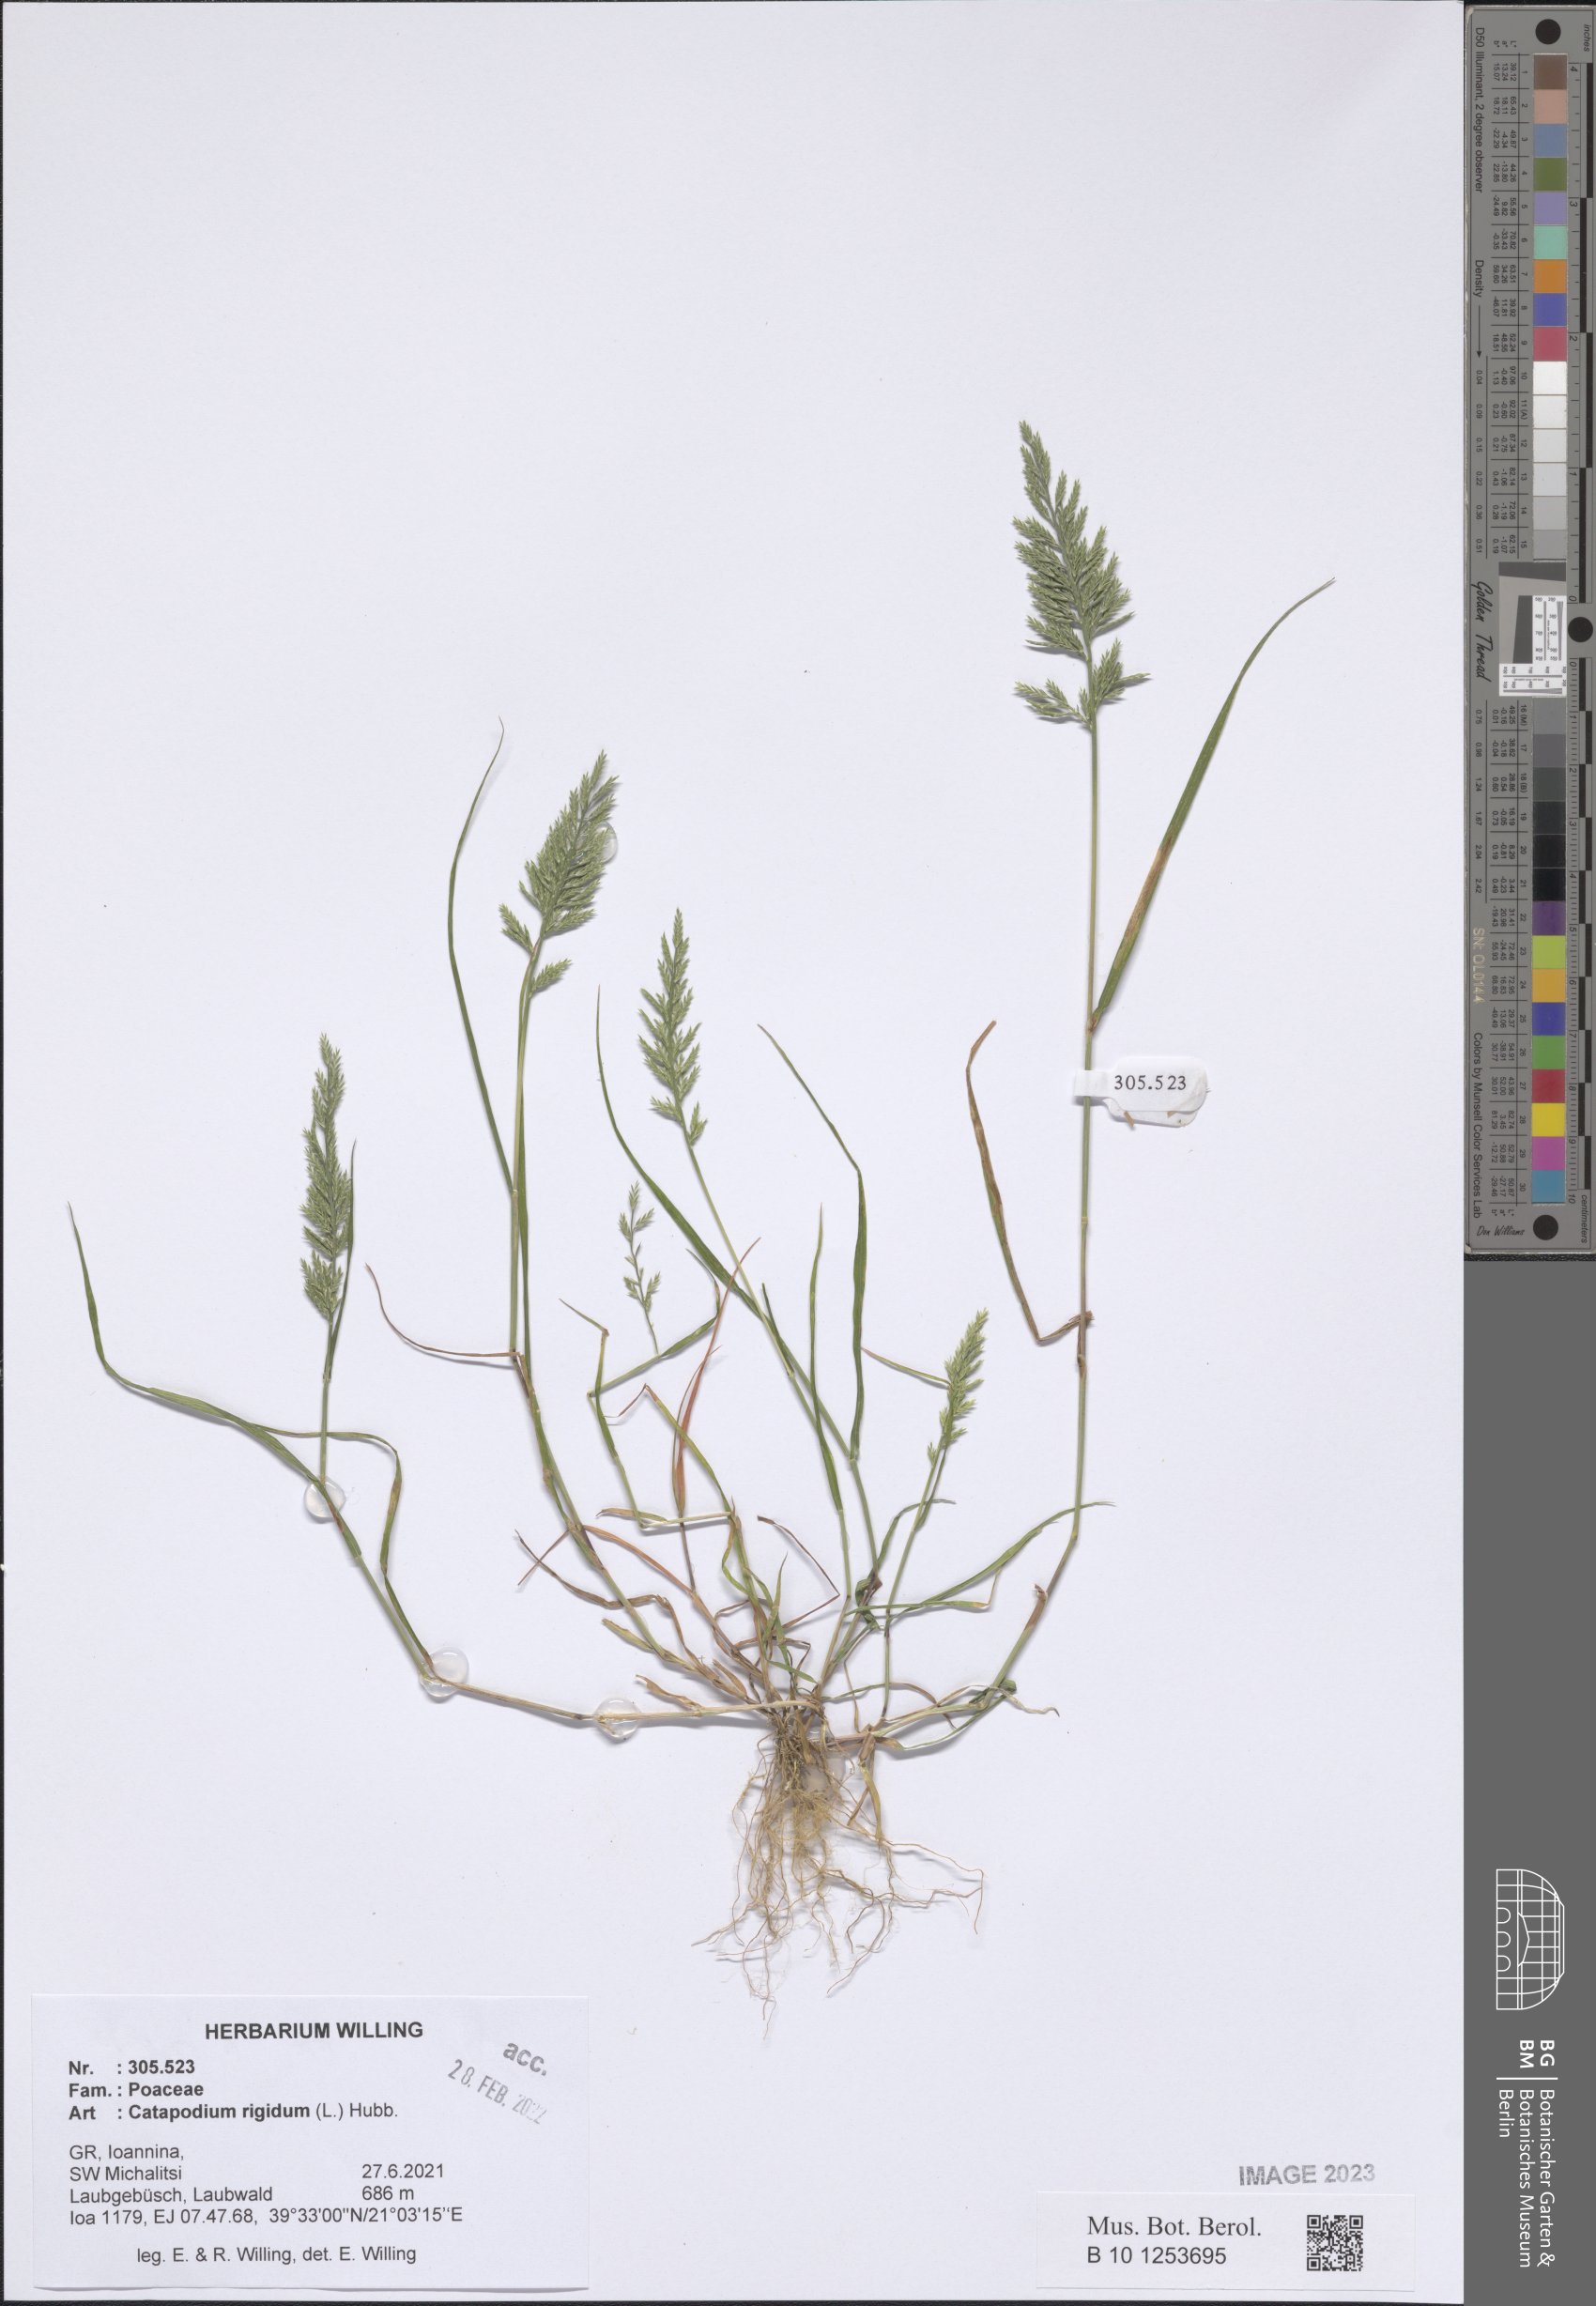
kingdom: Plantae
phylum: Tracheophyta
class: Liliopsida
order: Poales
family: Poaceae
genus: Catapodium
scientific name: Catapodium rigidum
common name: Fern-grass
